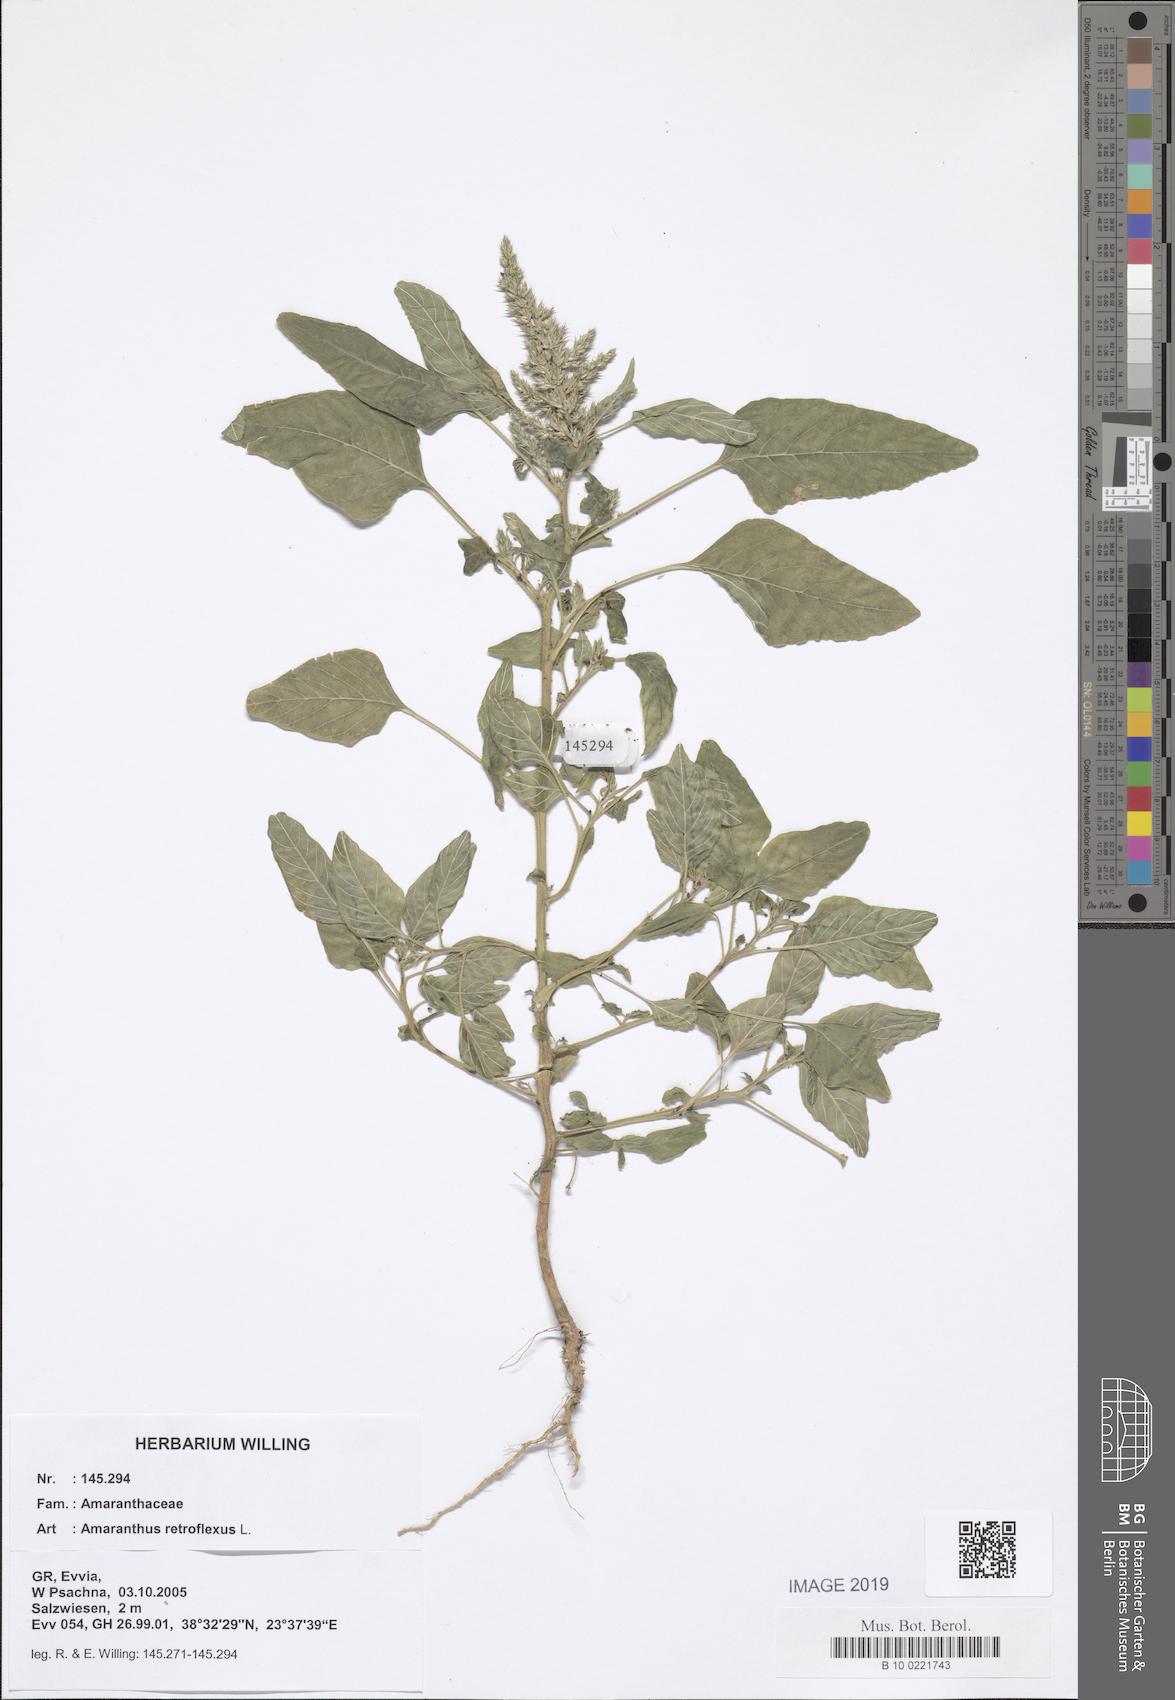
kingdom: Plantae
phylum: Tracheophyta
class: Magnoliopsida
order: Caryophyllales
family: Amaranthaceae
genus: Amaranthus
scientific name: Amaranthus retroflexus
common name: Redroot amaranth
